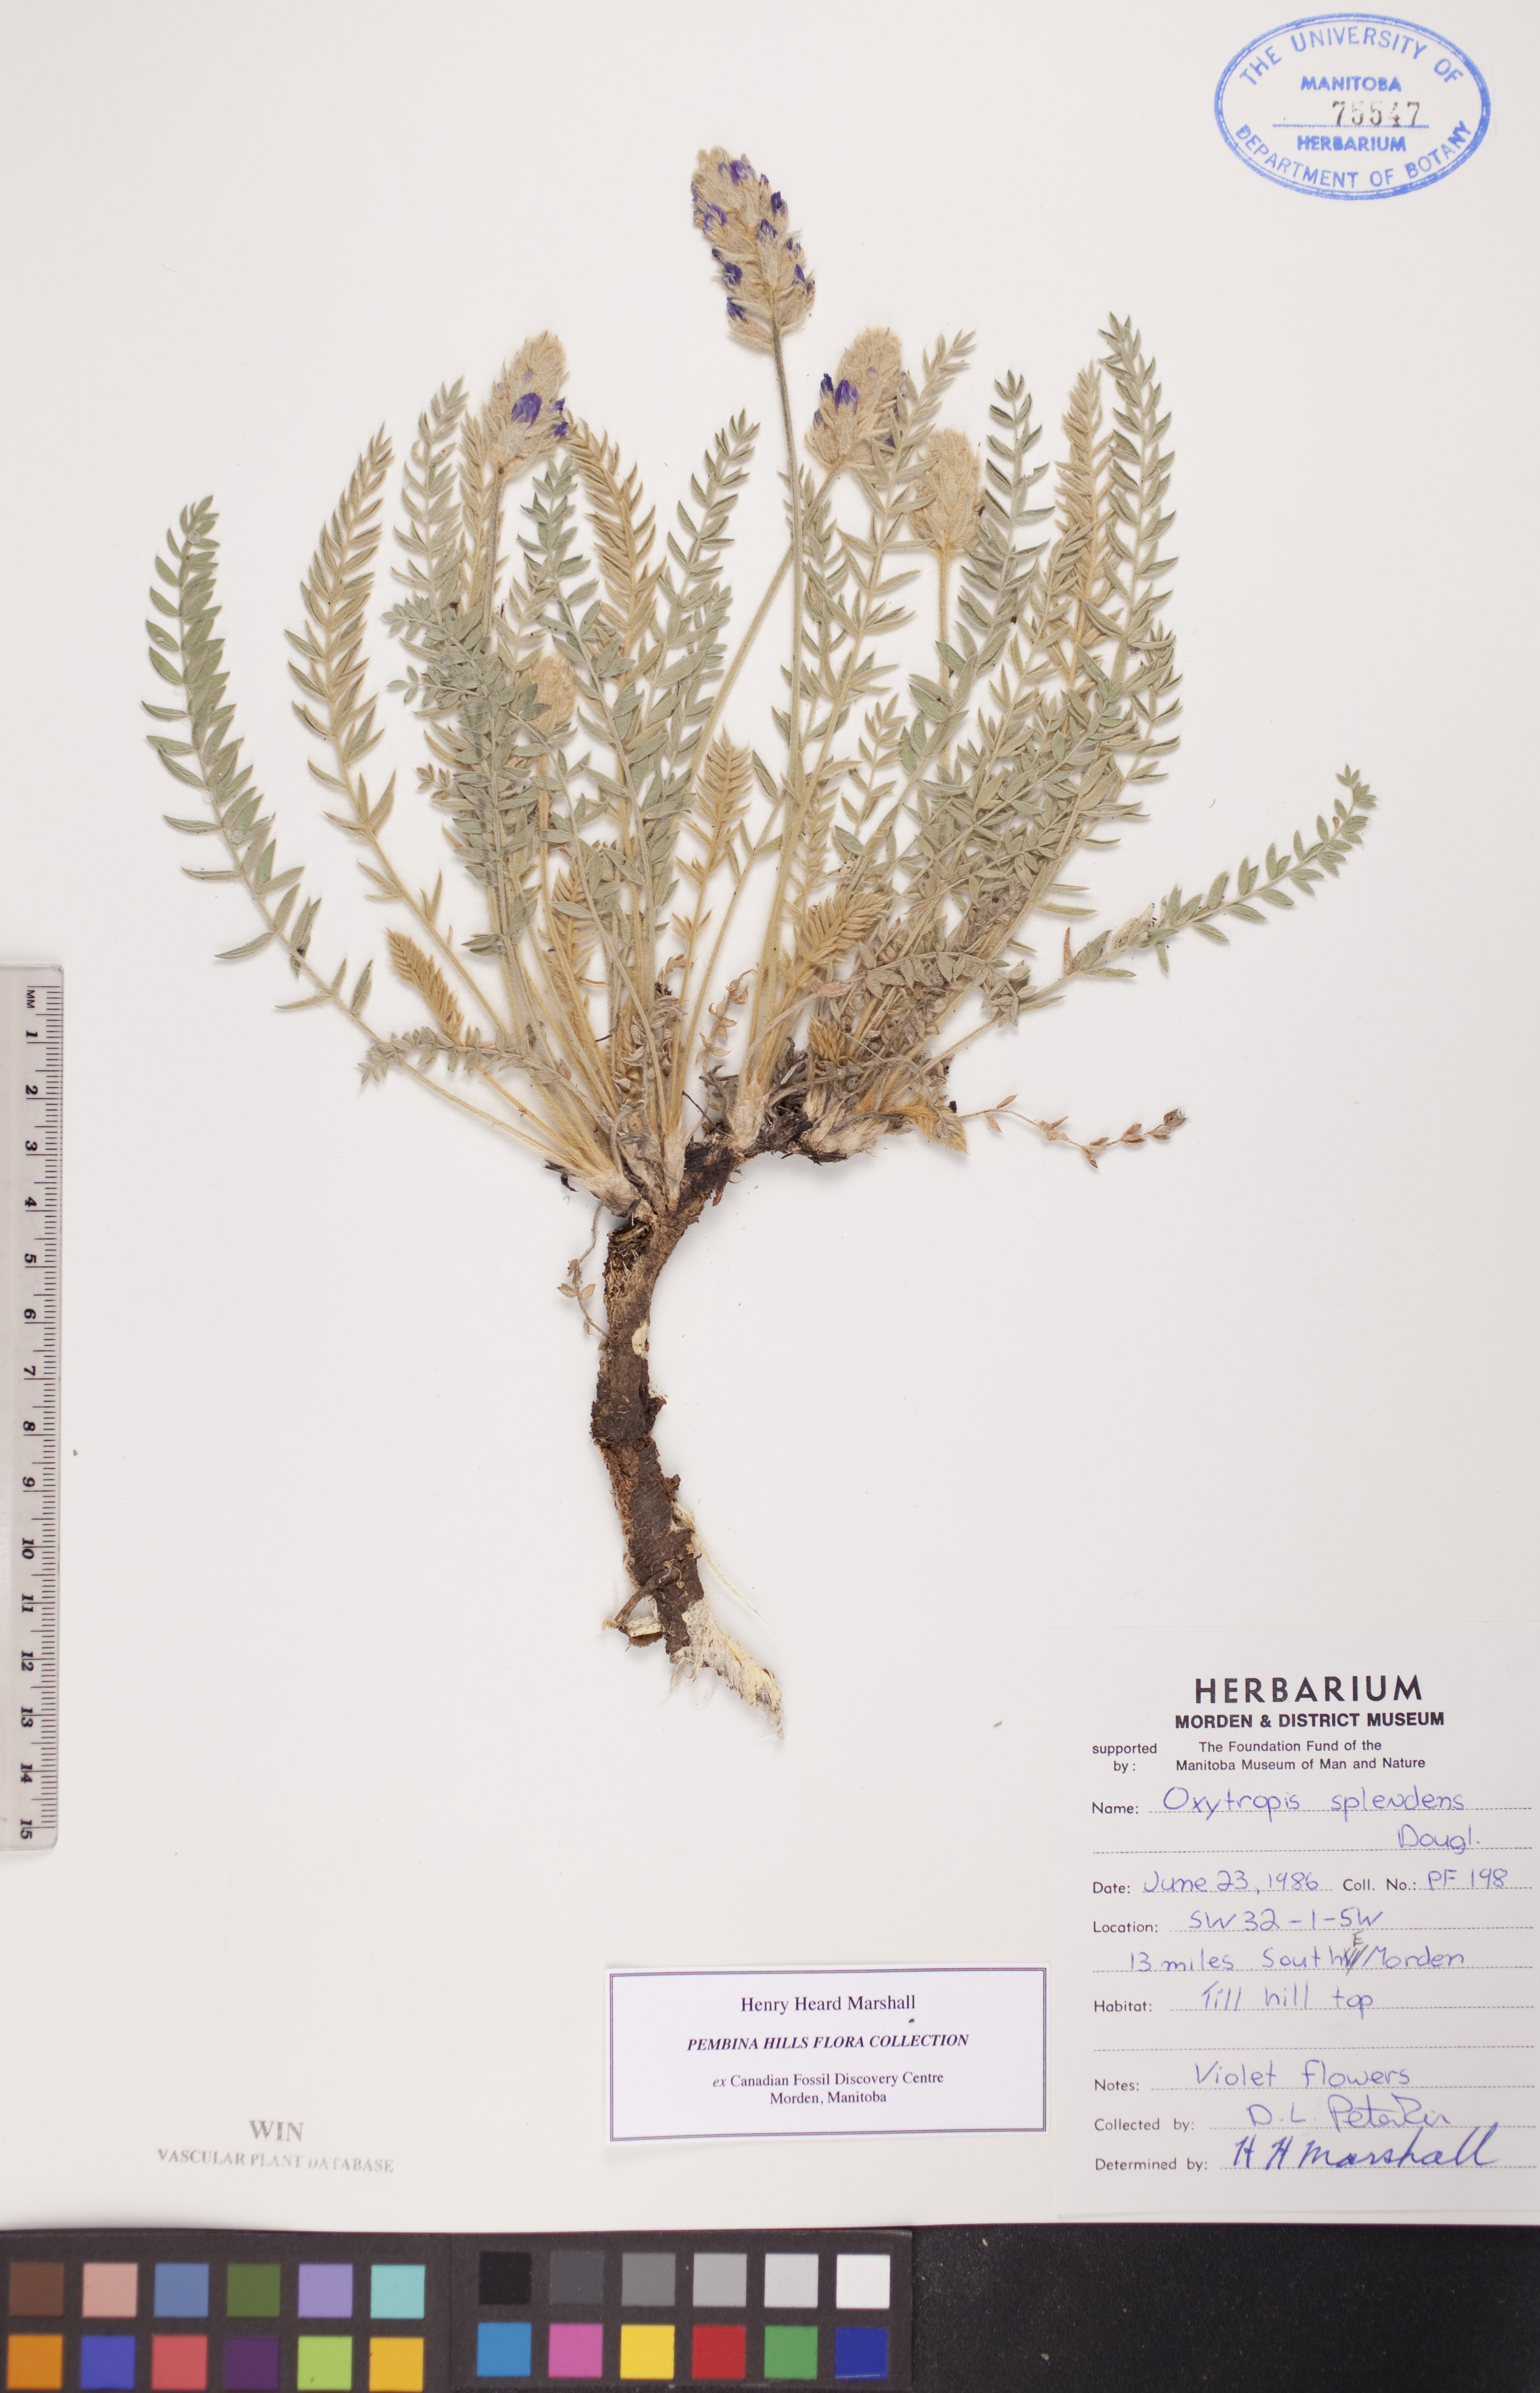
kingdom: Plantae
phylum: Tracheophyta
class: Magnoliopsida
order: Fabales
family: Fabaceae
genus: Oxytropis
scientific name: Oxytropis splendens
